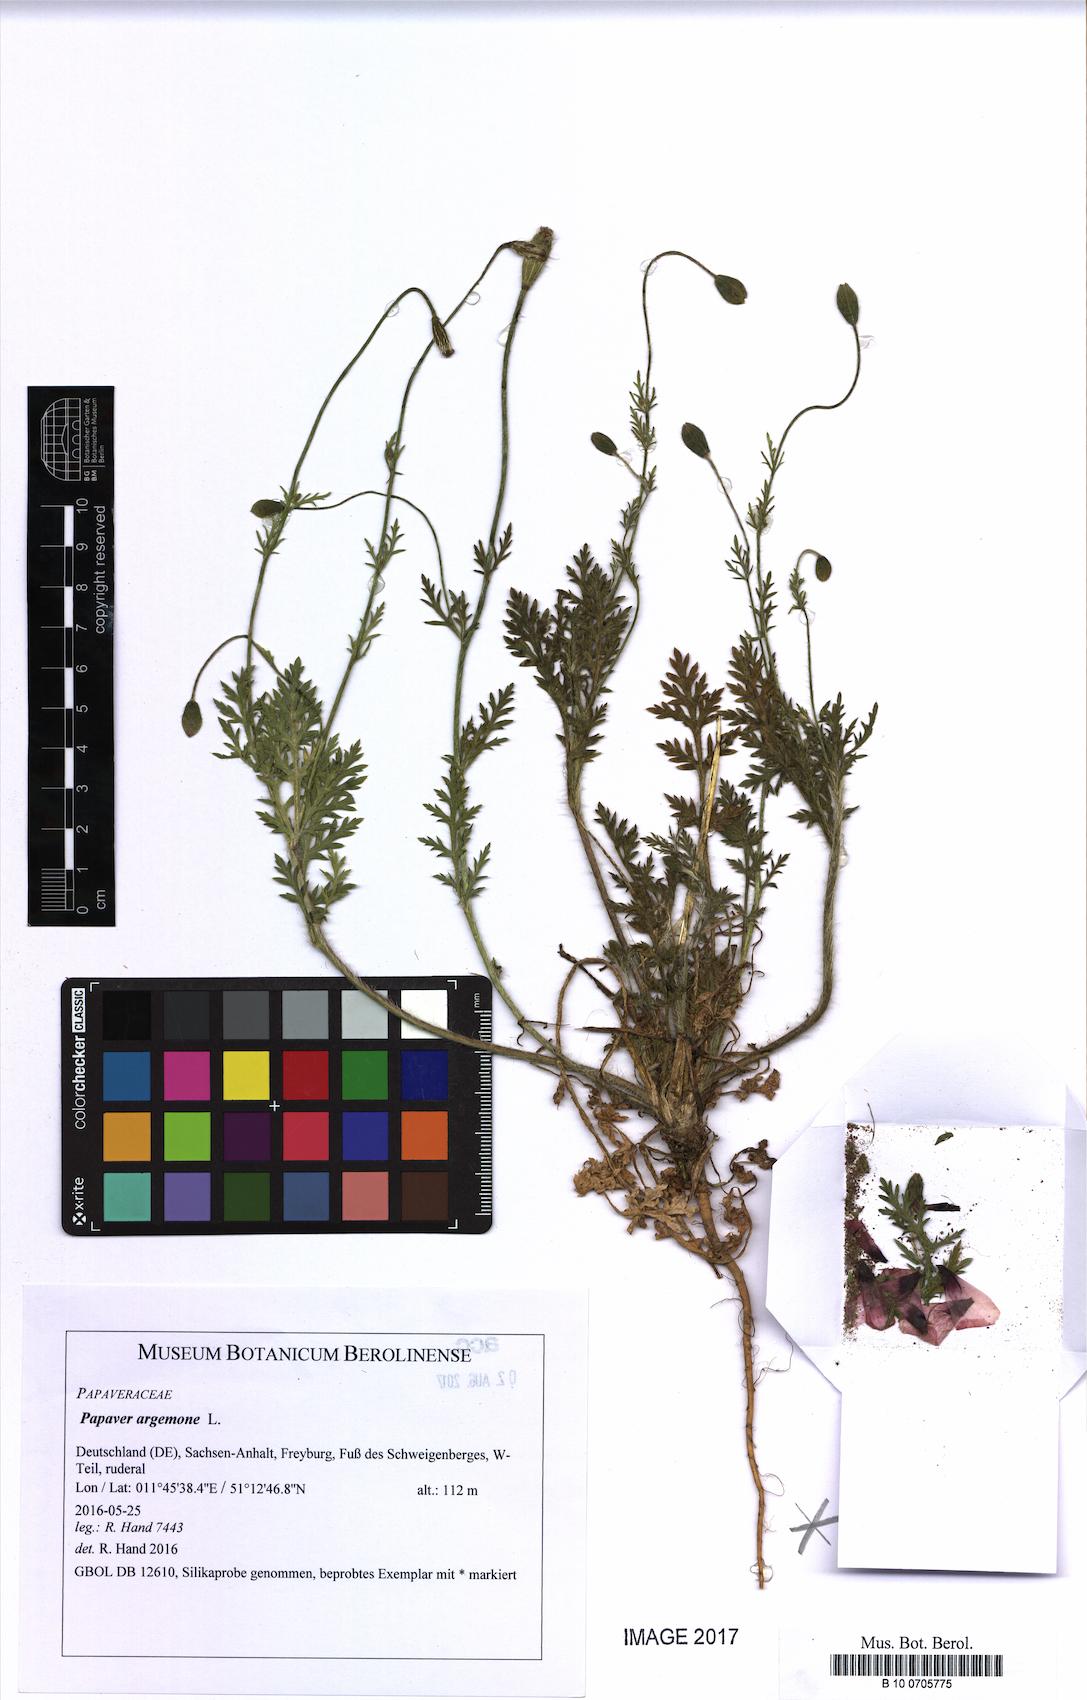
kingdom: Plantae
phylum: Tracheophyta
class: Magnoliopsida
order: Ranunculales
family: Papaveraceae
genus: Roemeria
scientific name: Roemeria argemone
